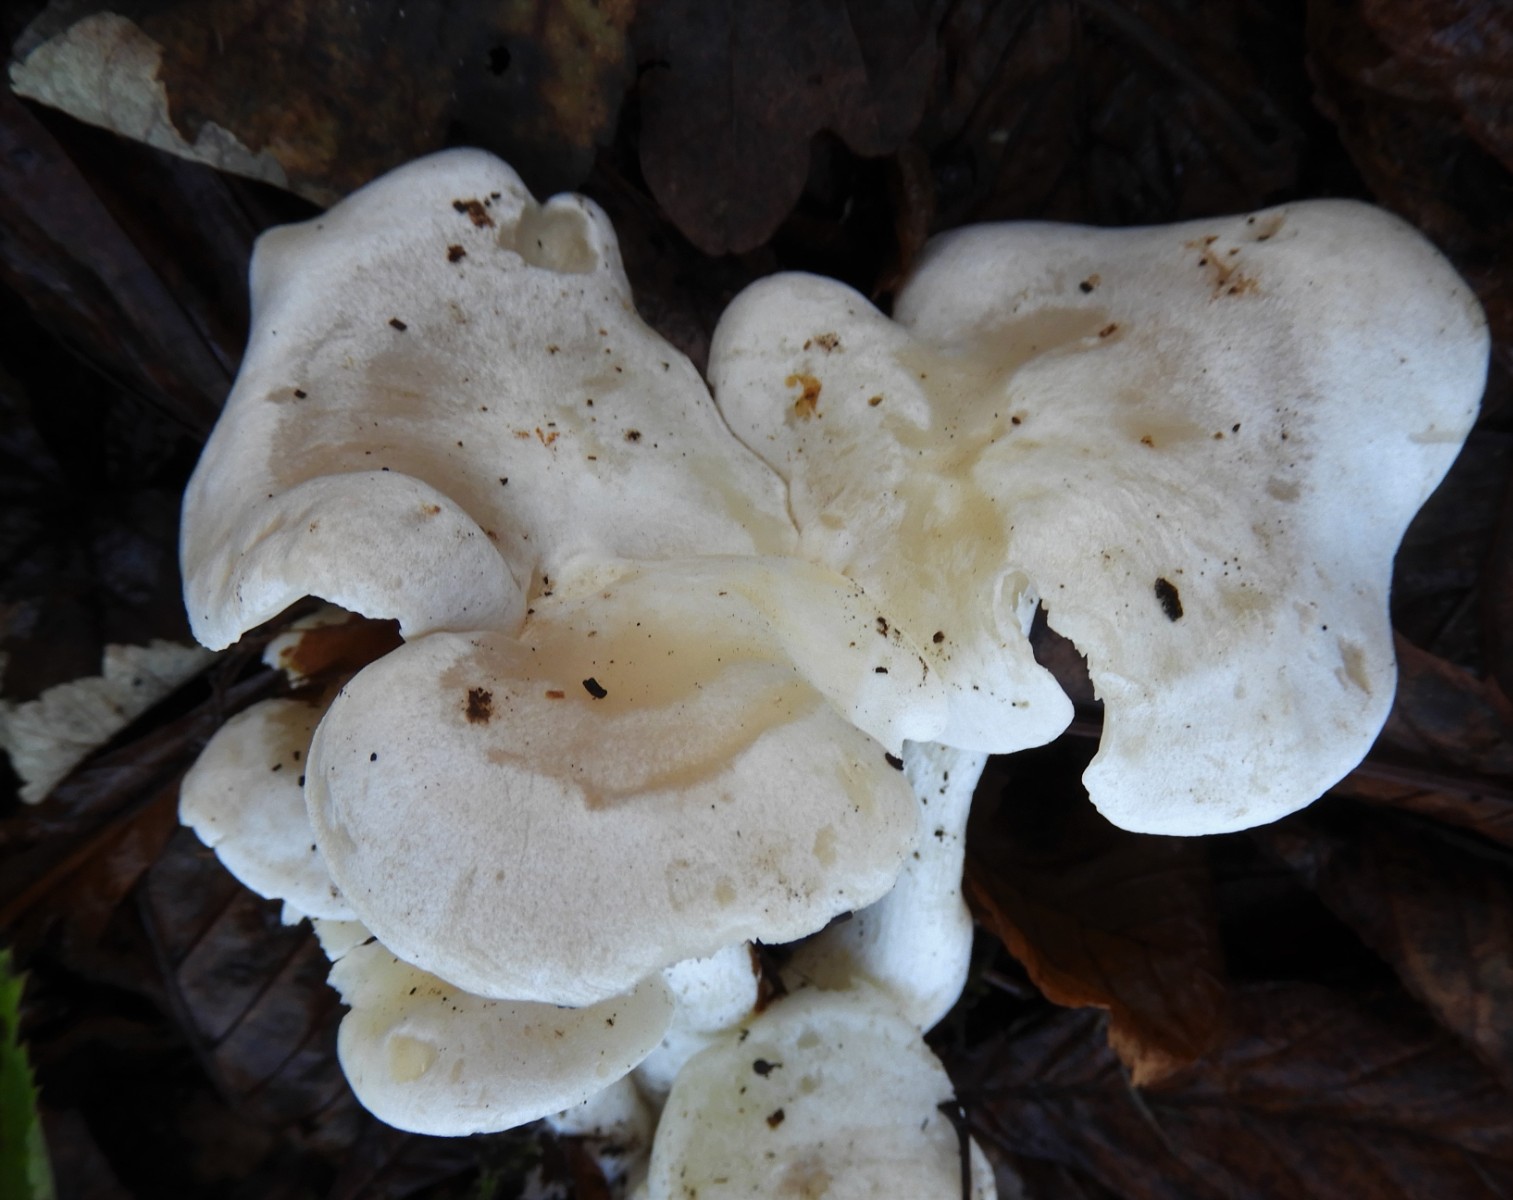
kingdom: Fungi
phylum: Basidiomycota
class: Agaricomycetes
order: Agaricales
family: Tricholomataceae
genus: Leucocybe
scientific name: Leucocybe connata
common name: knippe-tragthat
